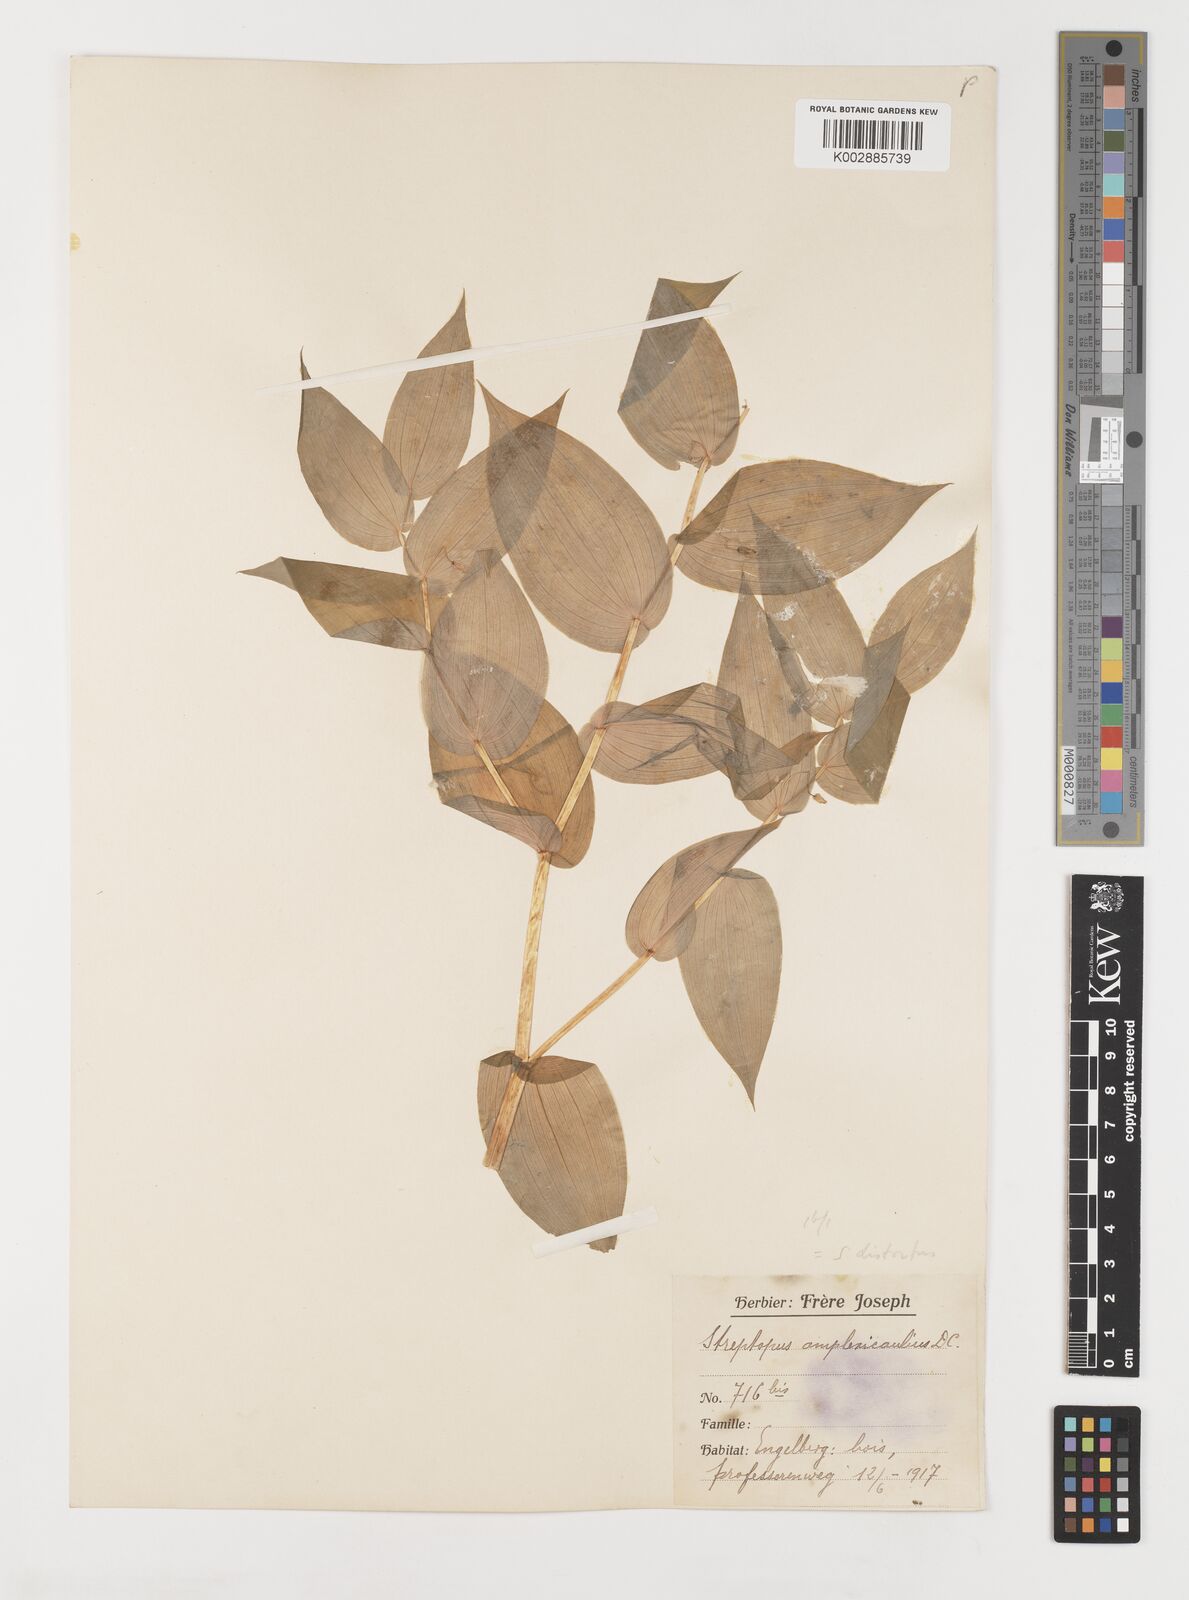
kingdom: Plantae
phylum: Tracheophyta
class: Liliopsida
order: Liliales
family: Liliaceae
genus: Streptopus
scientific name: Streptopus amplexifolius
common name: Clasp twisted stalk
